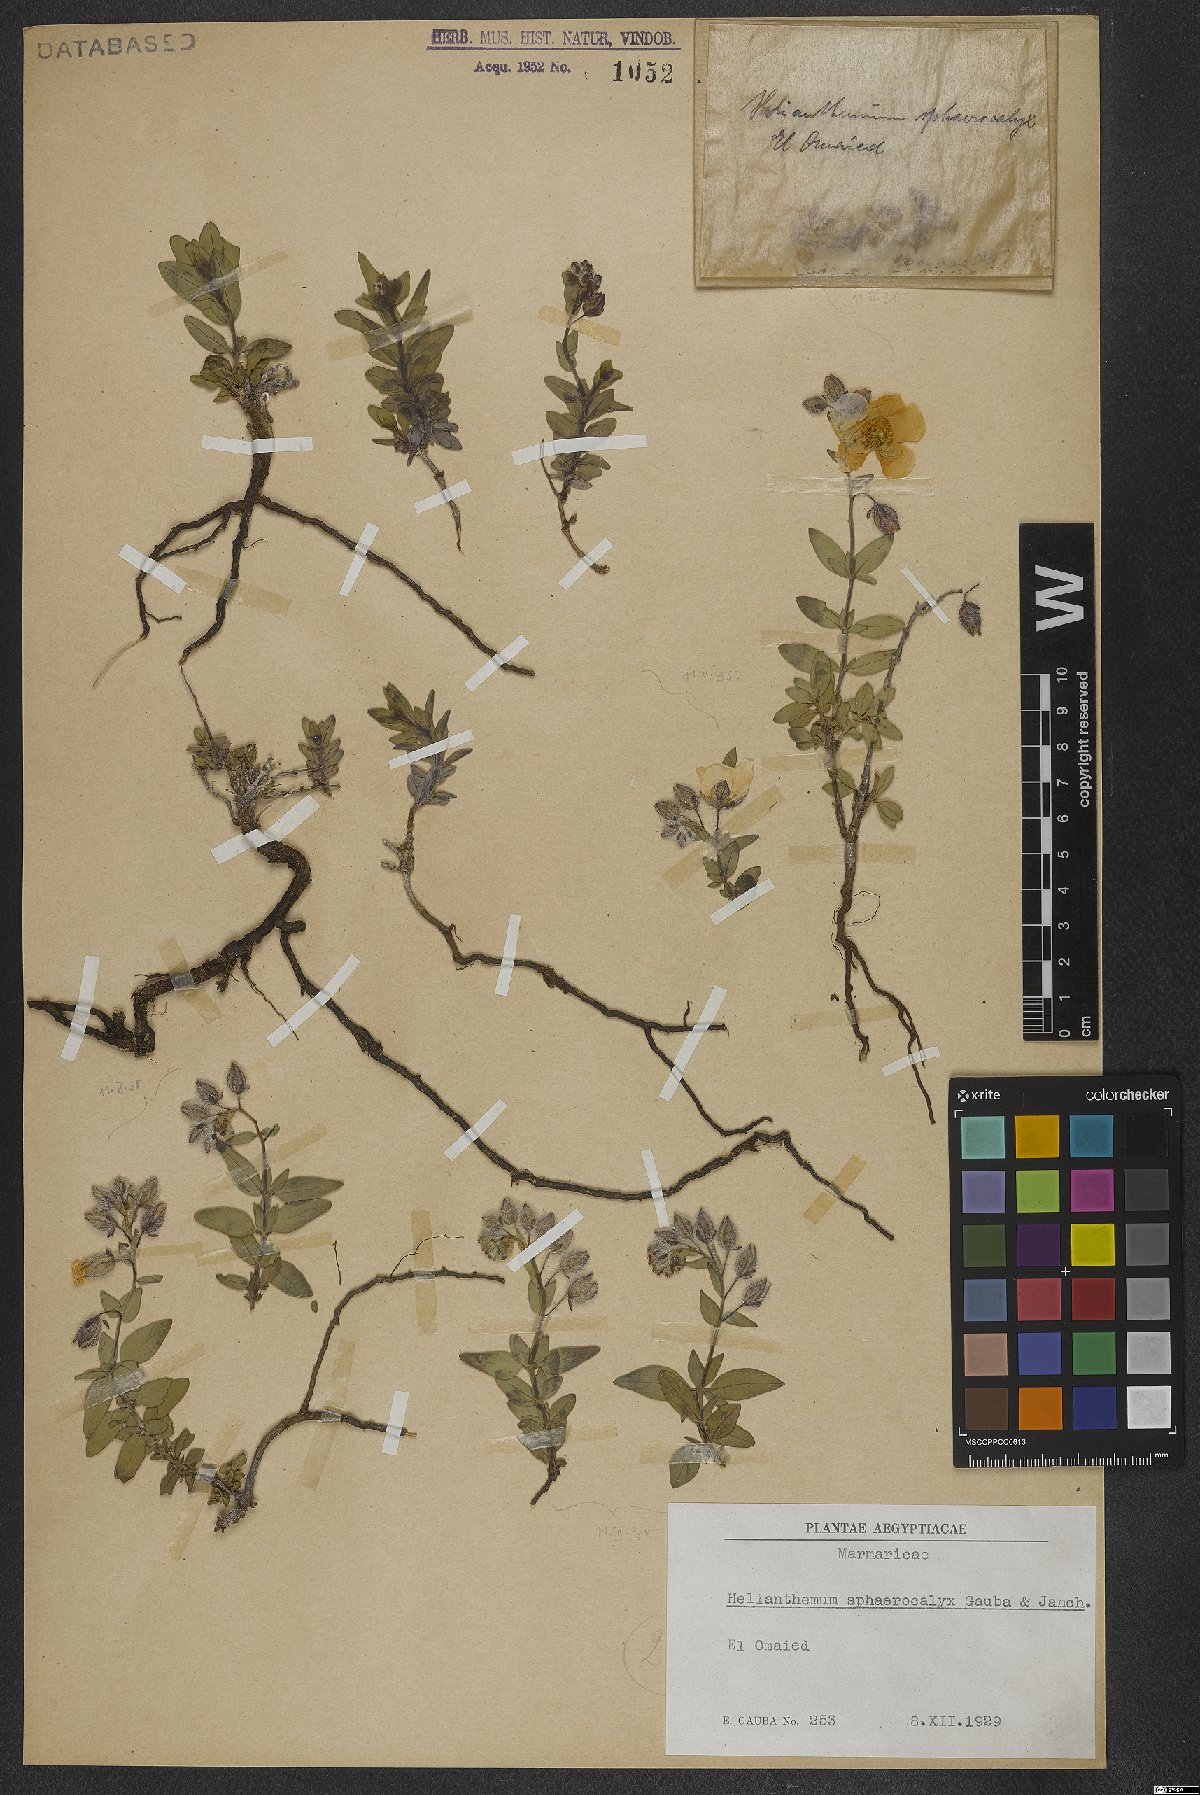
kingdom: Plantae
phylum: Tracheophyta
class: Magnoliopsida
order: Malvales
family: Cistaceae
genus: Helianthemum
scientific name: Helianthemum crassifolium
